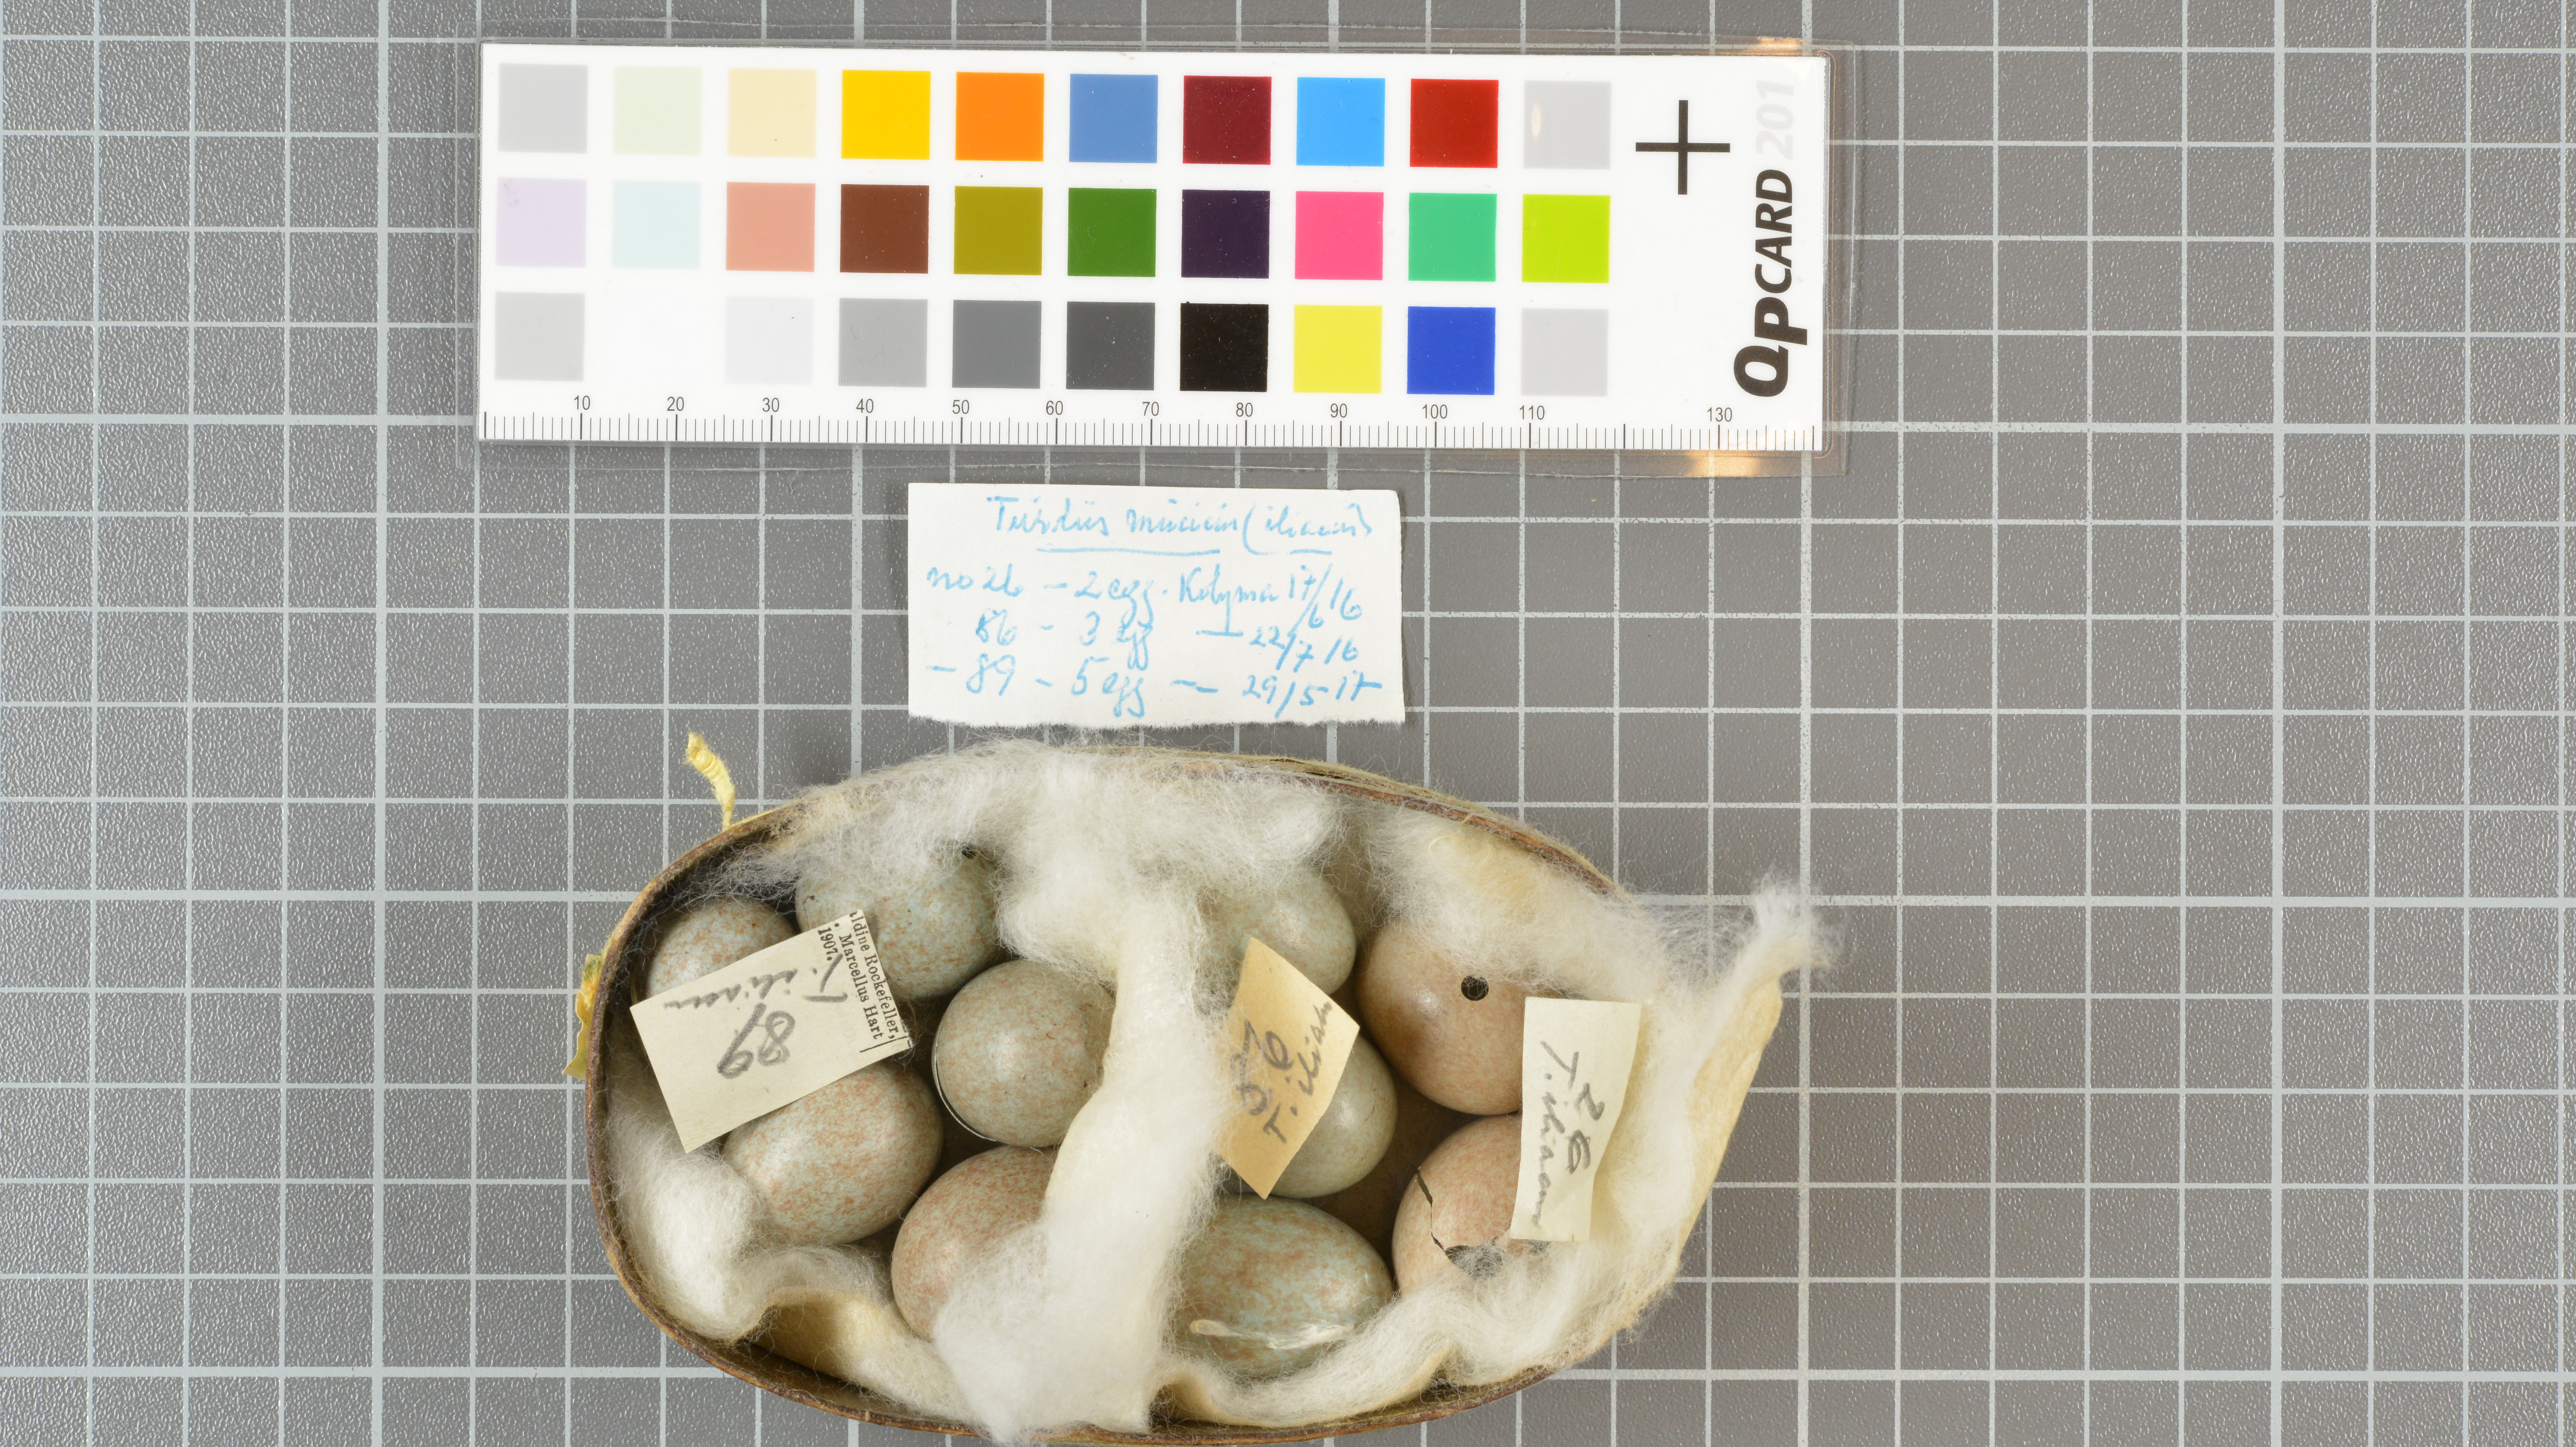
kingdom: Animalia
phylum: Chordata
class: Aves
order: Passeriformes
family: Turdidae
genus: Turdus
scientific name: Turdus iliacus
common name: Redwing
